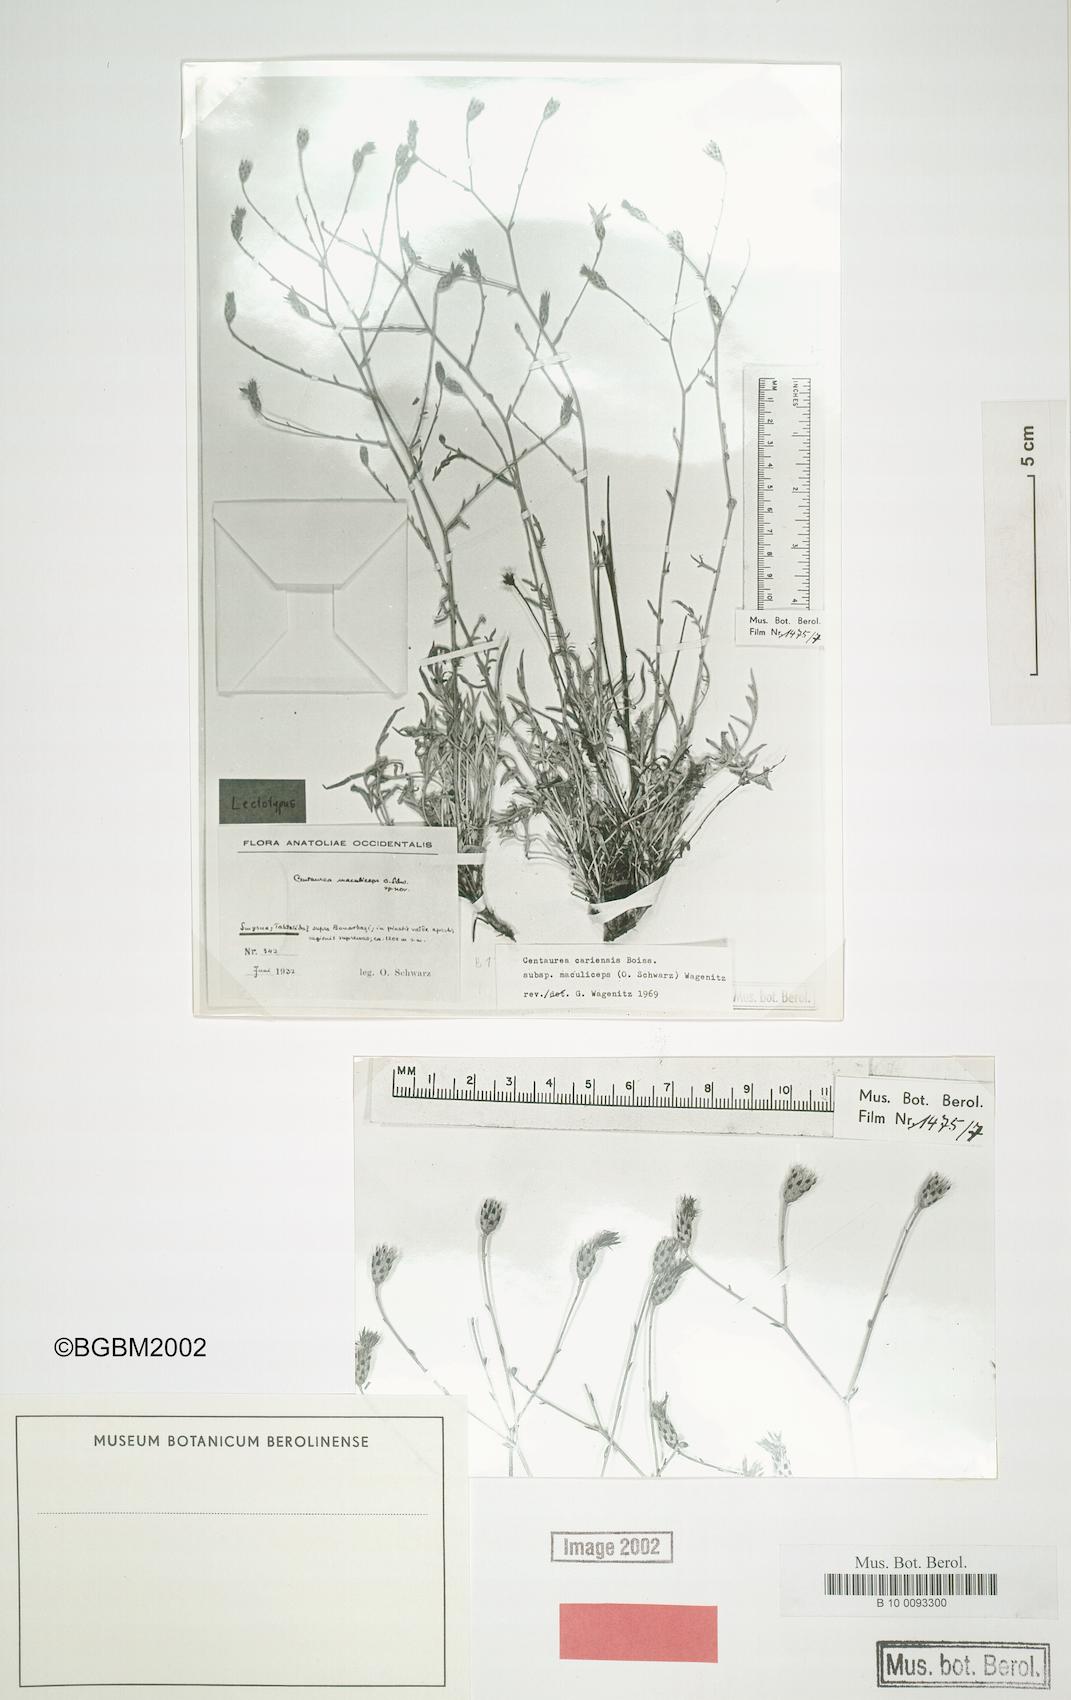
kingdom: Plantae
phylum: Tracheophyta
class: Magnoliopsida
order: Asterales
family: Asteraceae
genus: Centaurea
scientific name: Centaurea cariensis
